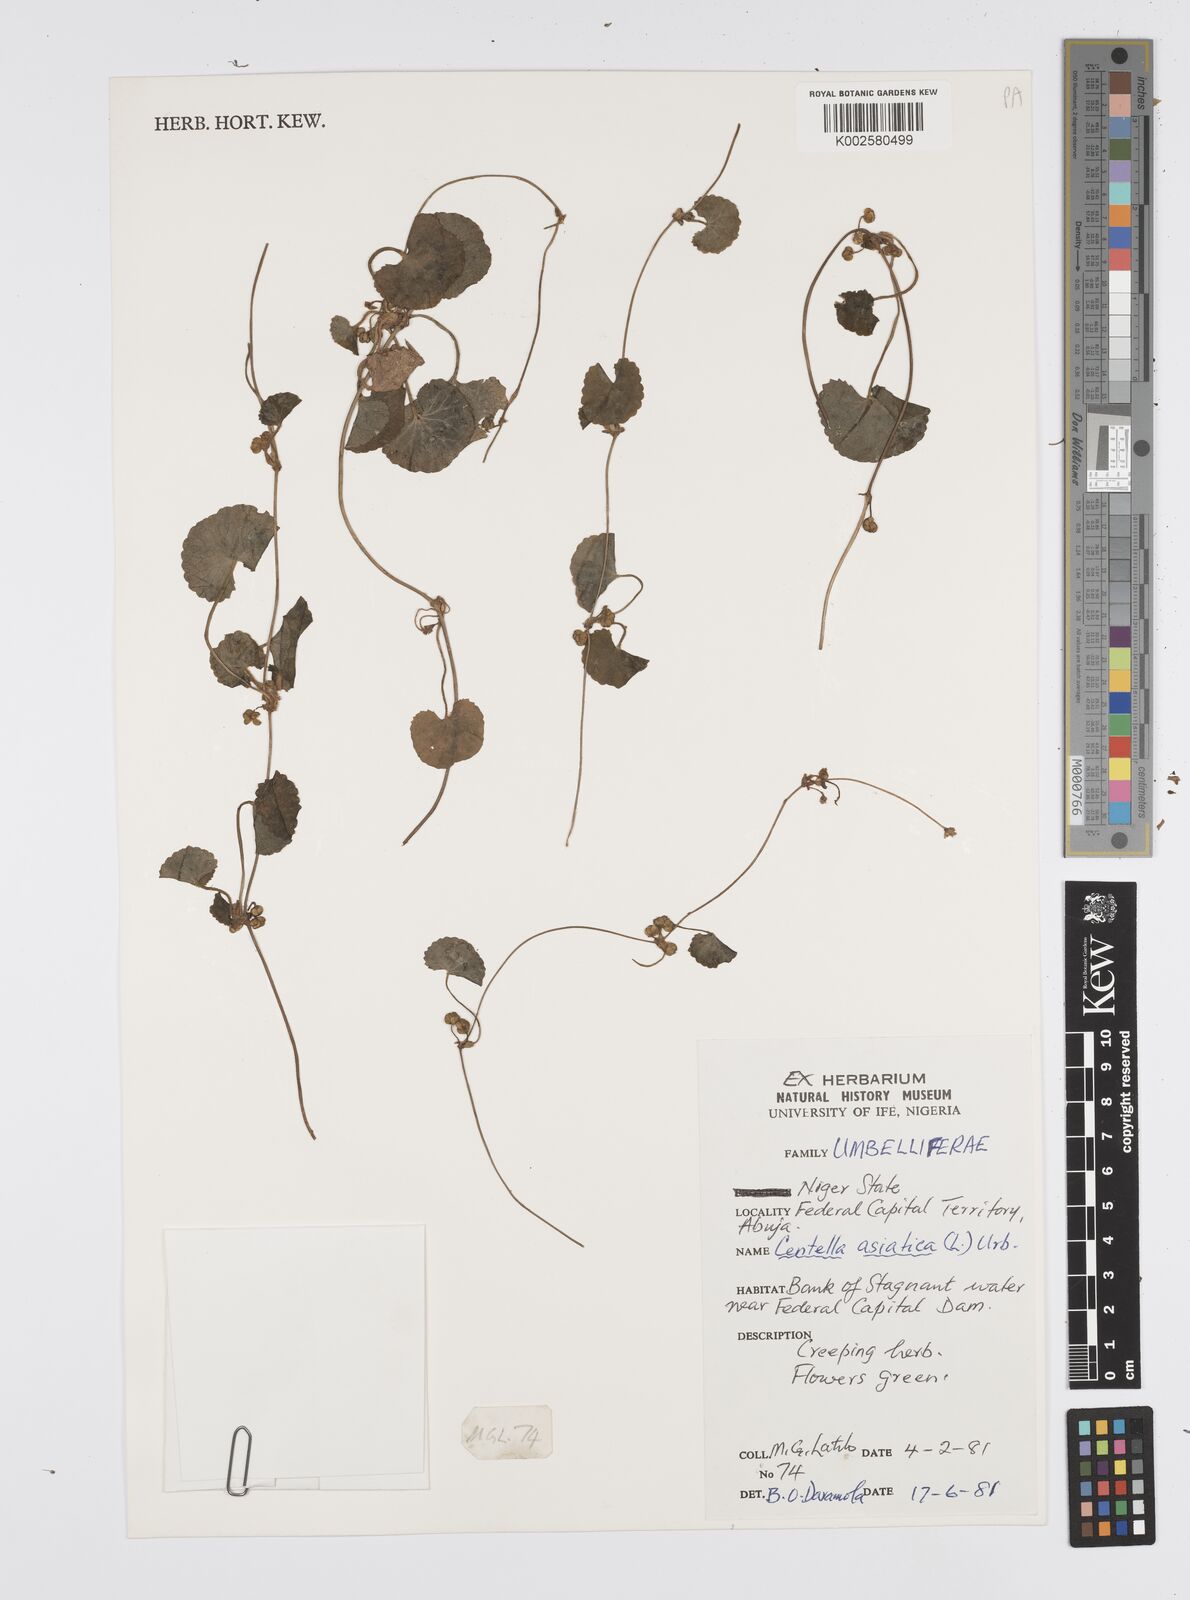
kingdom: Plantae
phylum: Tracheophyta
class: Magnoliopsida
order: Apiales
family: Apiaceae
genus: Centella
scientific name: Centella asiatica
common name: Spadeleaf
